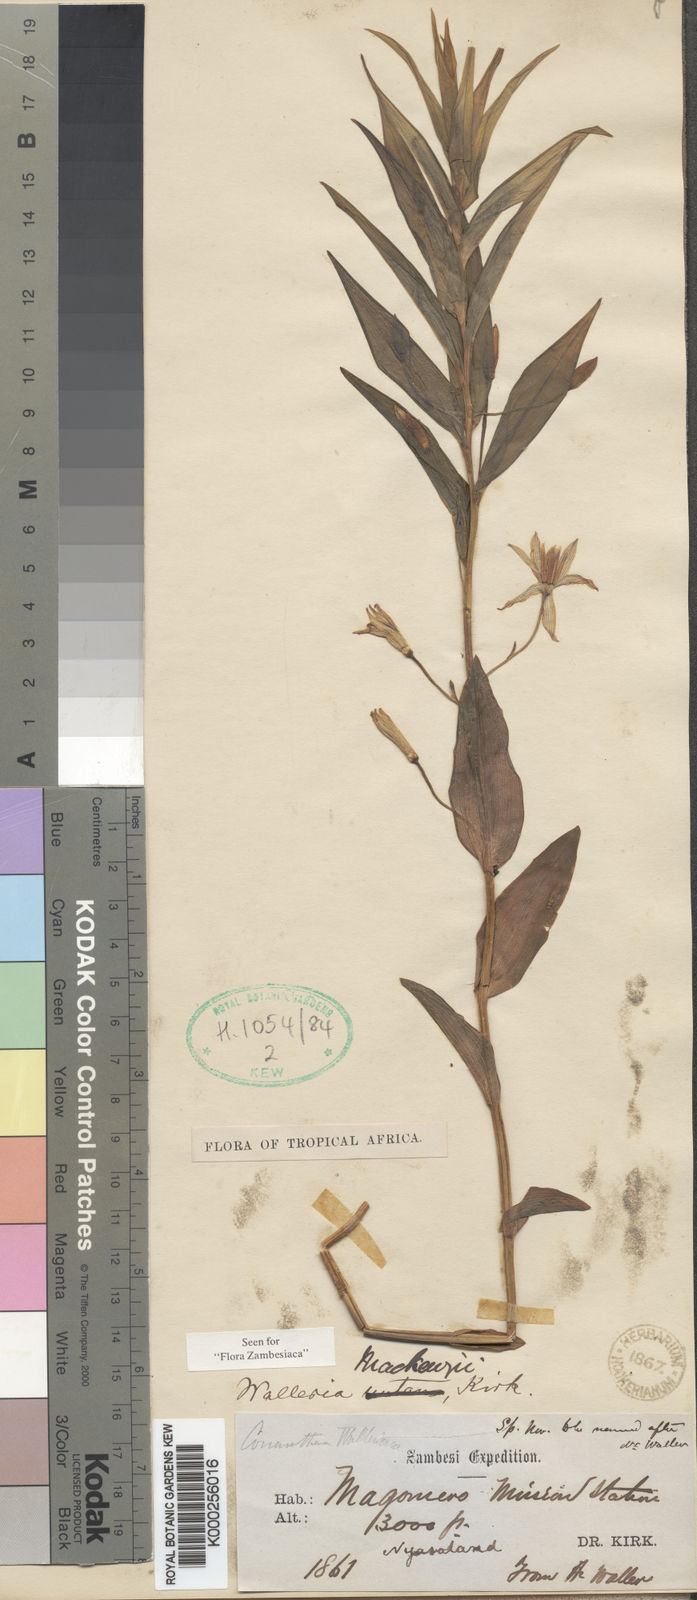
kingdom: Plantae
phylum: Tracheophyta
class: Liliopsida
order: Asparagales
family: Tecophilaeaceae
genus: Walleria
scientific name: Walleria mackenziei
